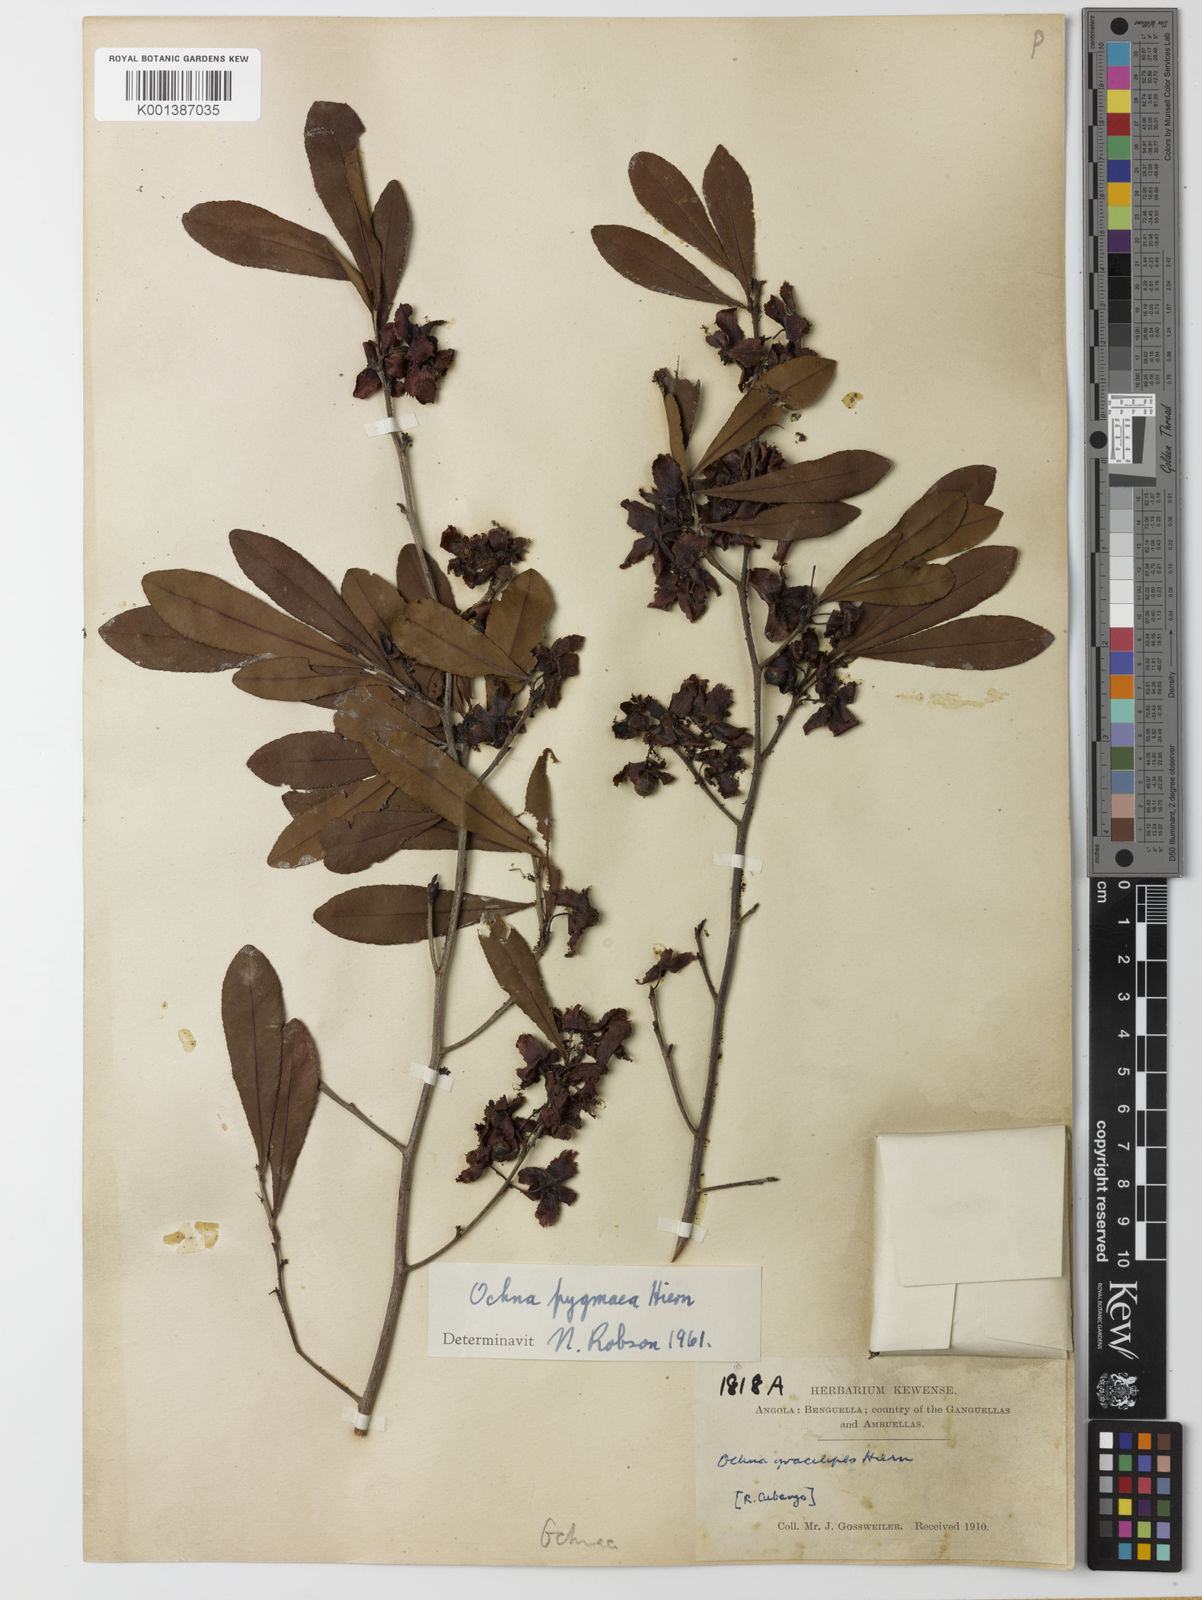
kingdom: Plantae
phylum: Tracheophyta
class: Magnoliopsida
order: Malpighiales
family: Ochnaceae
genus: Ochna
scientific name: Ochna pygmaea
